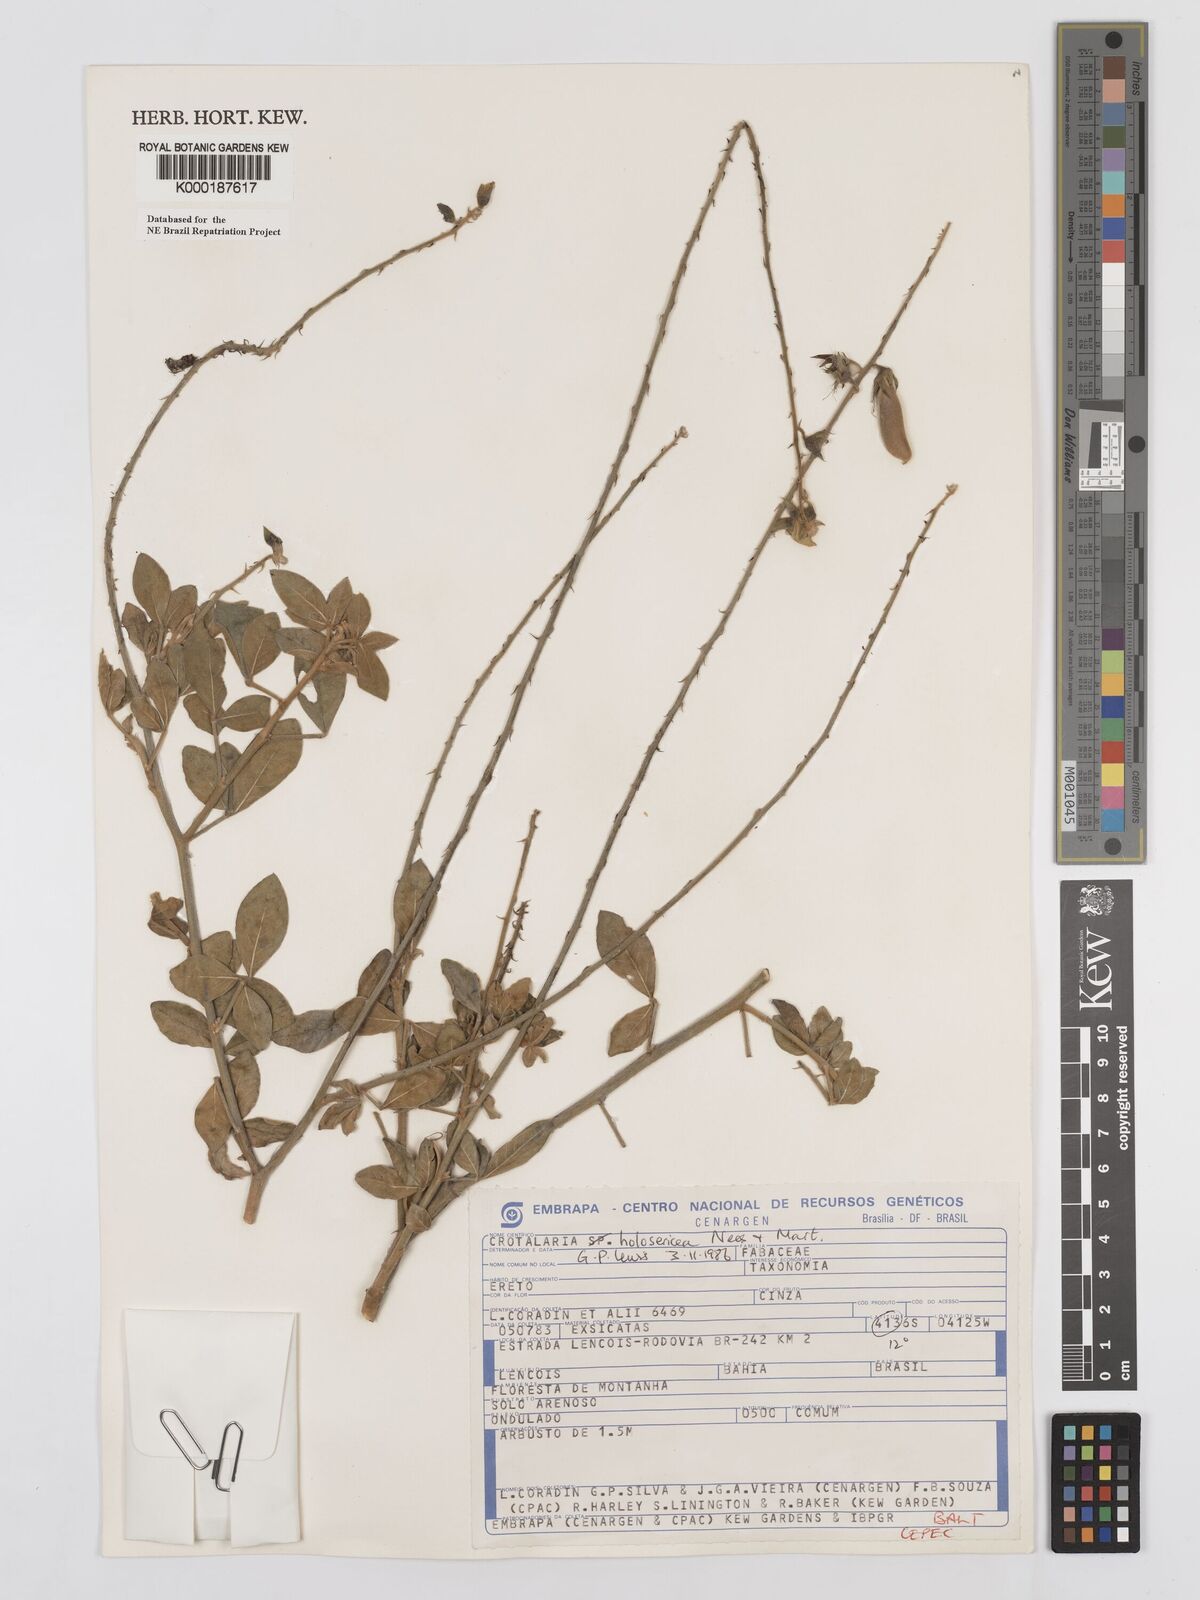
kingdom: Plantae
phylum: Tracheophyta
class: Magnoliopsida
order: Fabales
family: Fabaceae
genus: Crotalaria
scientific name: Crotalaria holosericea
